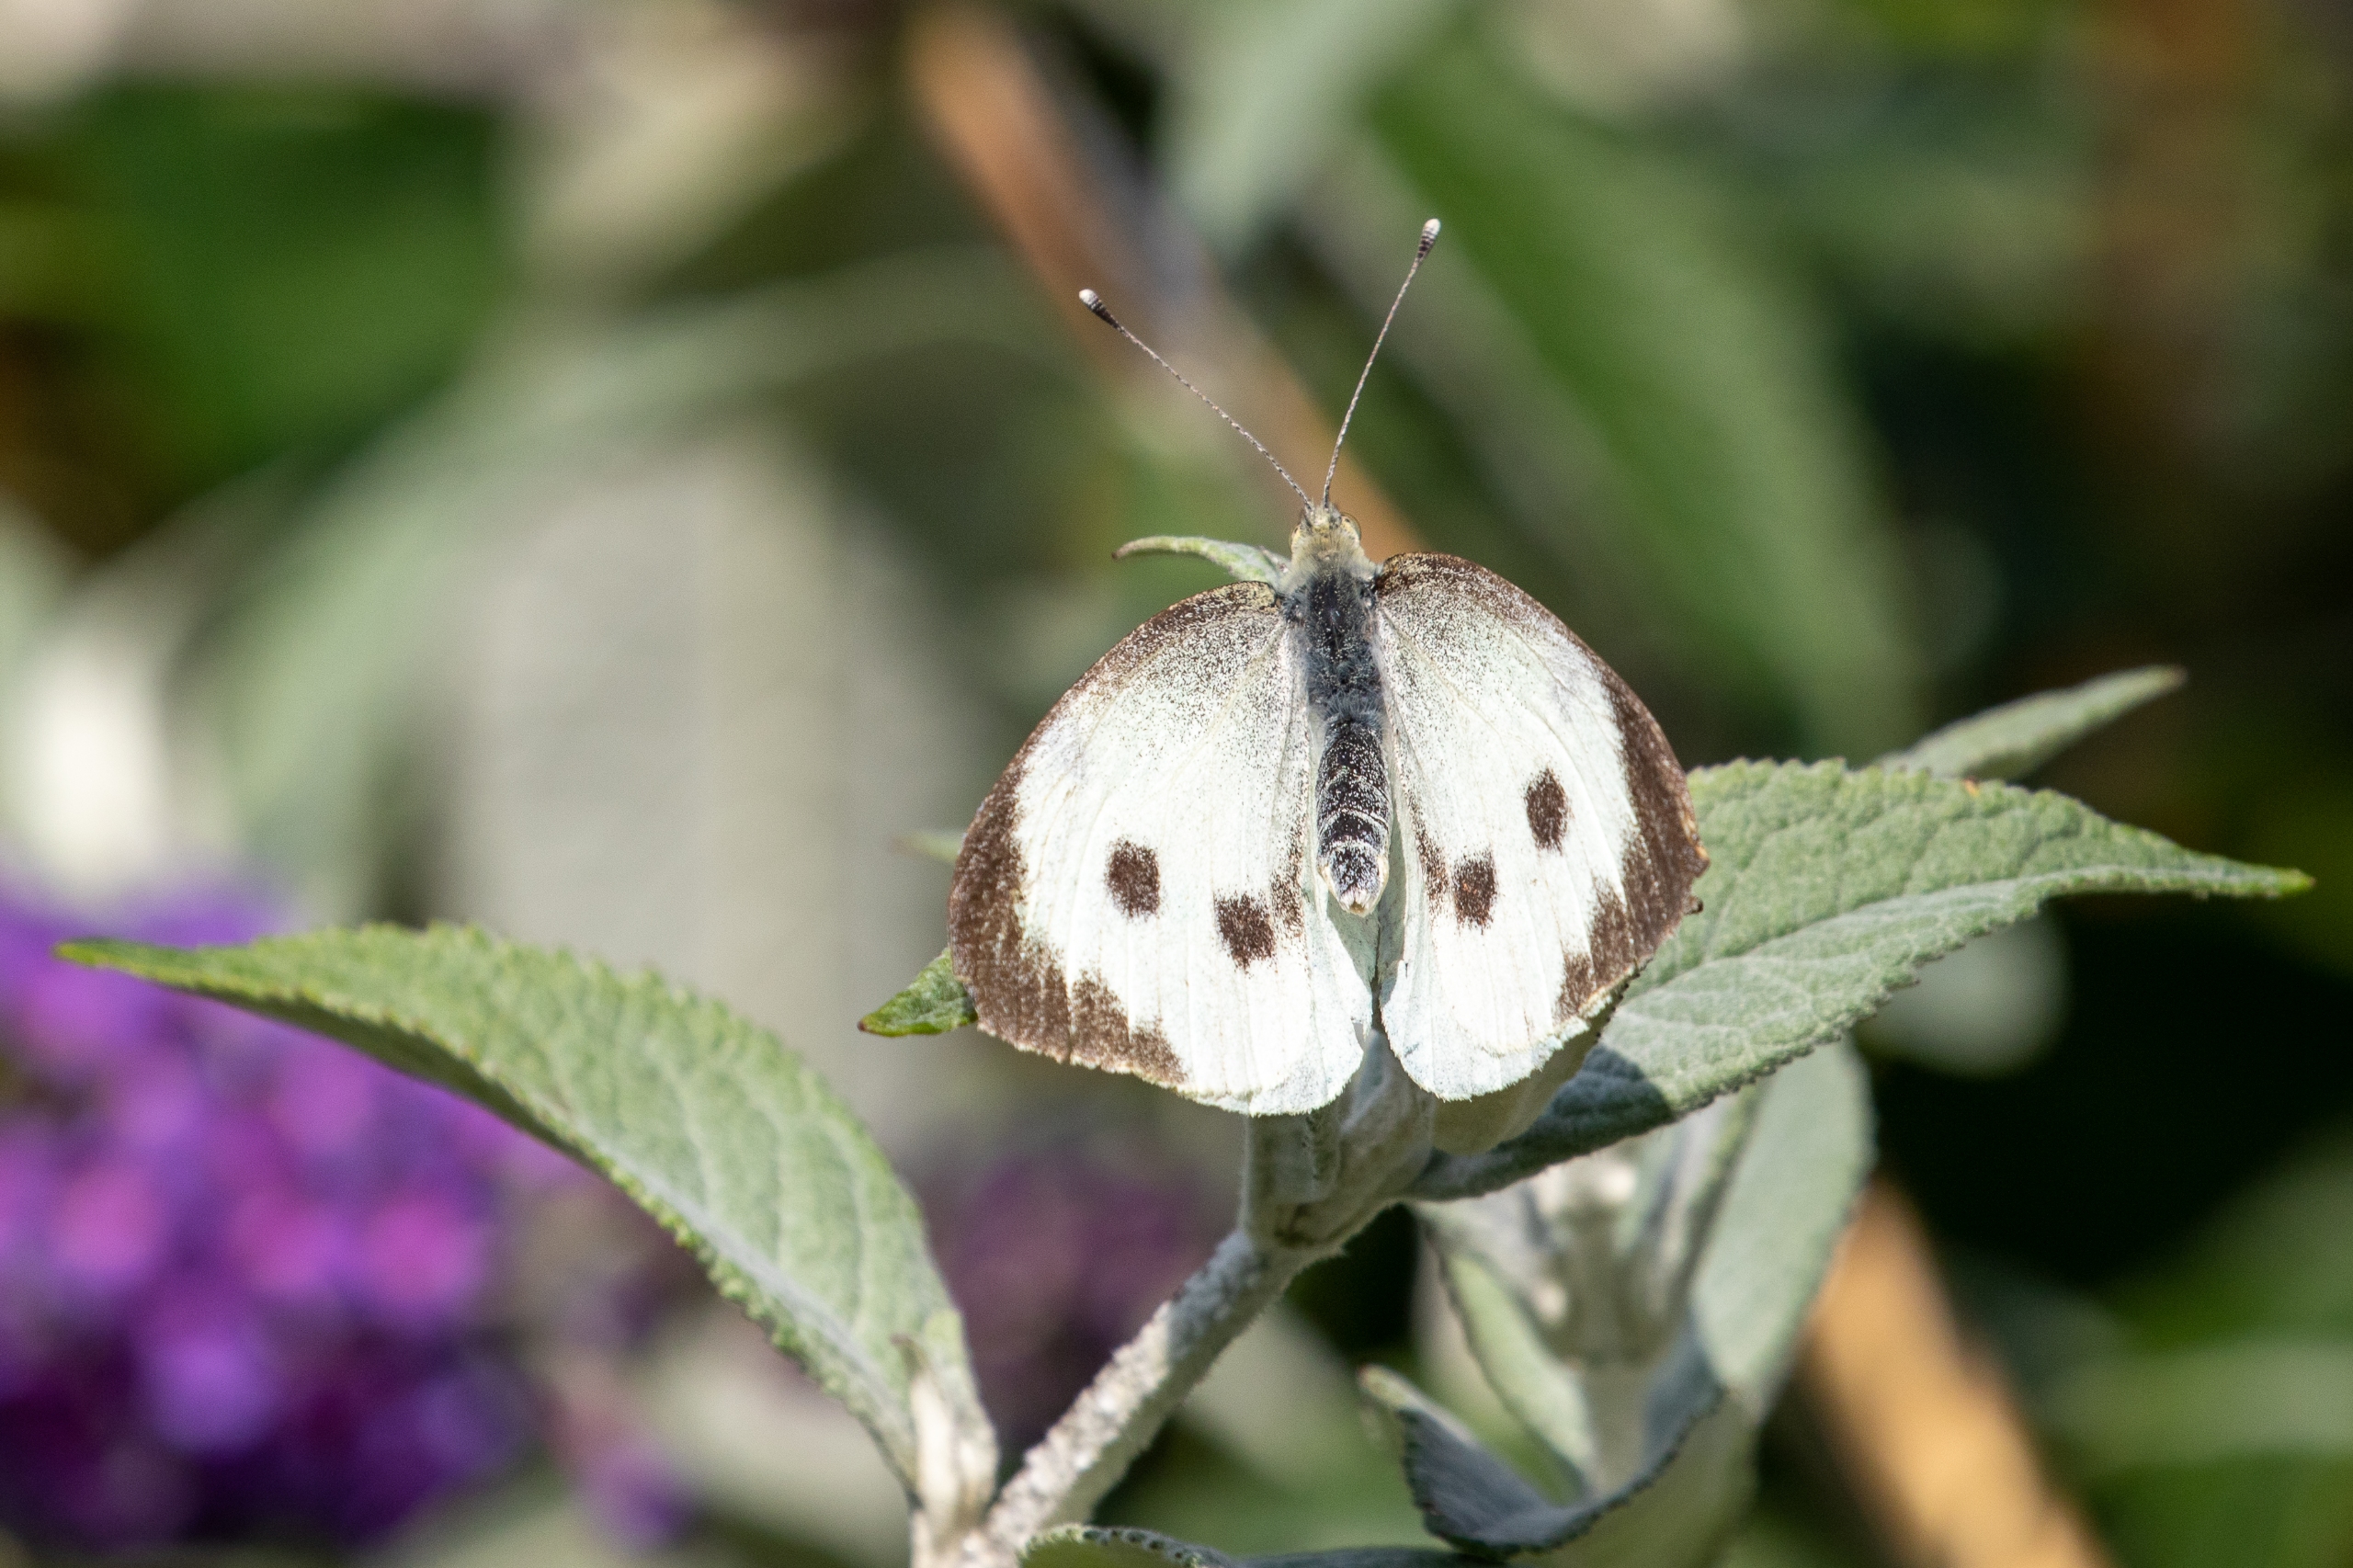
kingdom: Animalia
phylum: Arthropoda
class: Insecta
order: Lepidoptera
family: Pieridae
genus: Pieris
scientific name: Pieris brassicae
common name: Stor kålsommerfugl
